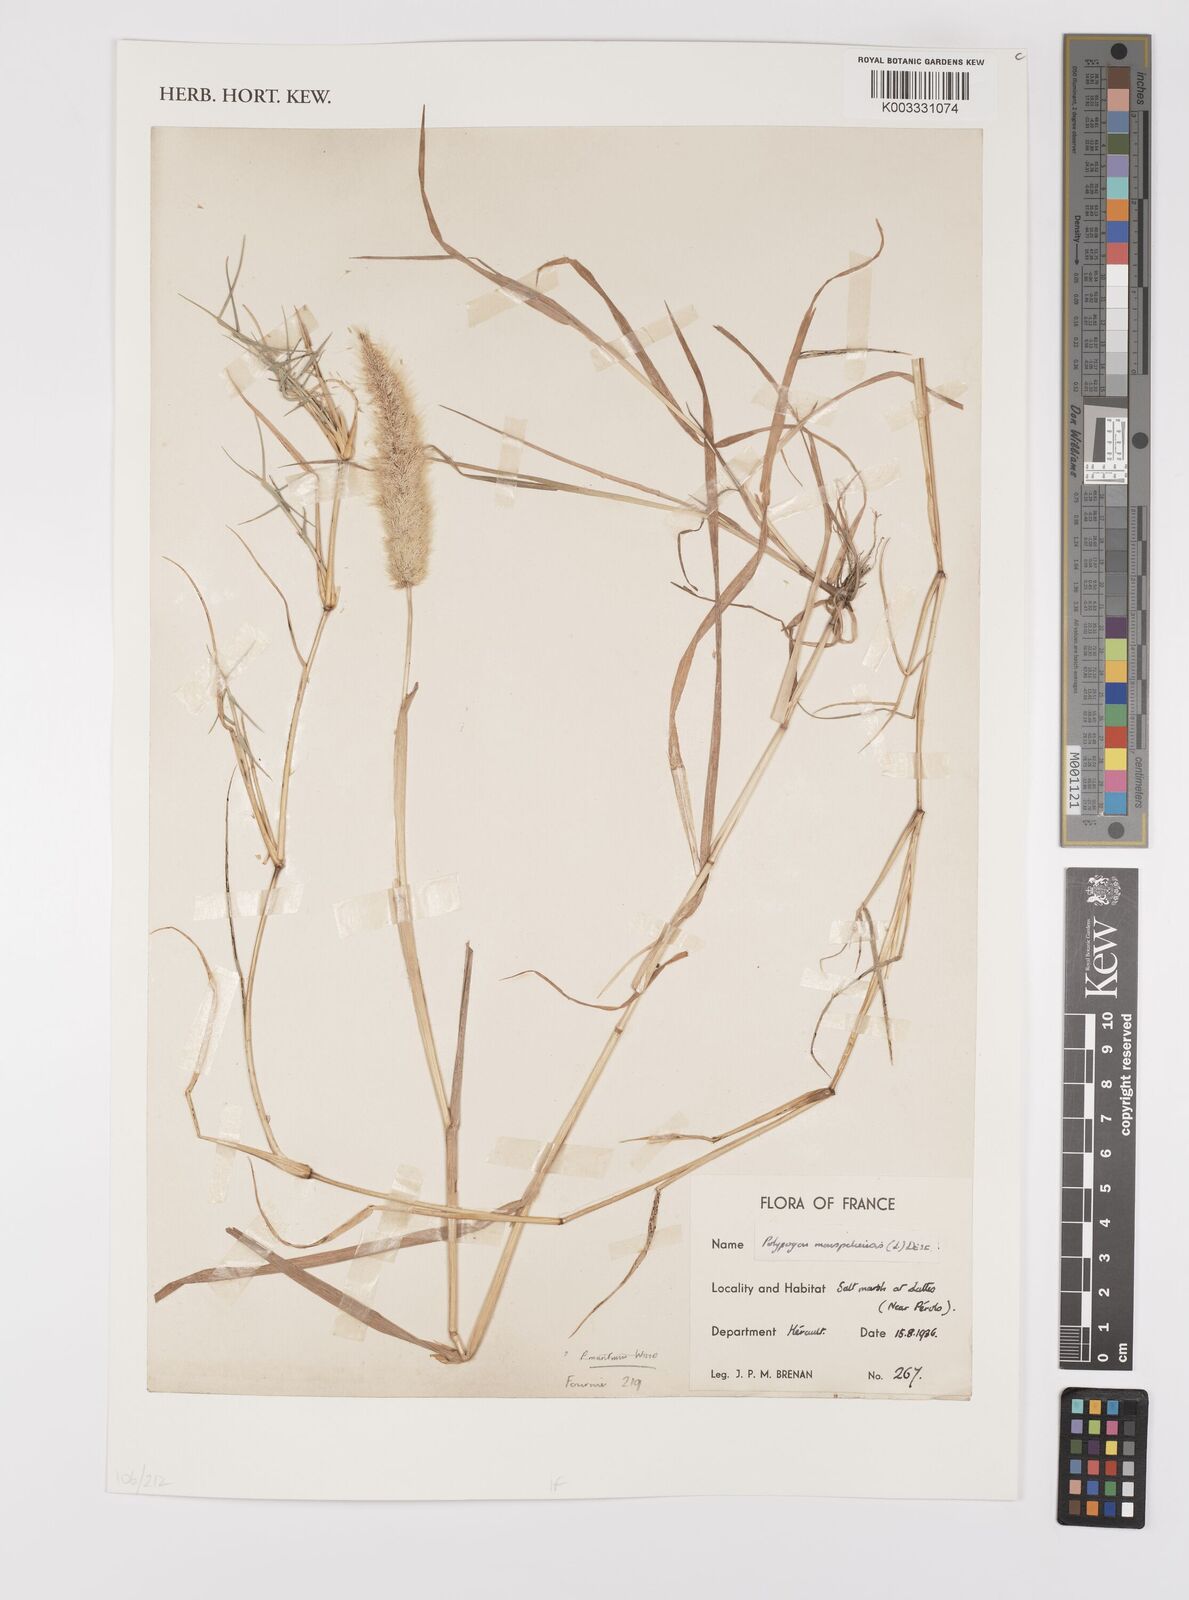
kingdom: Plantae
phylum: Tracheophyta
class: Liliopsida
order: Poales
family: Poaceae
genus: Polypogon
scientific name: Polypogon monspeliensis
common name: Annual rabbitsfoot grass
